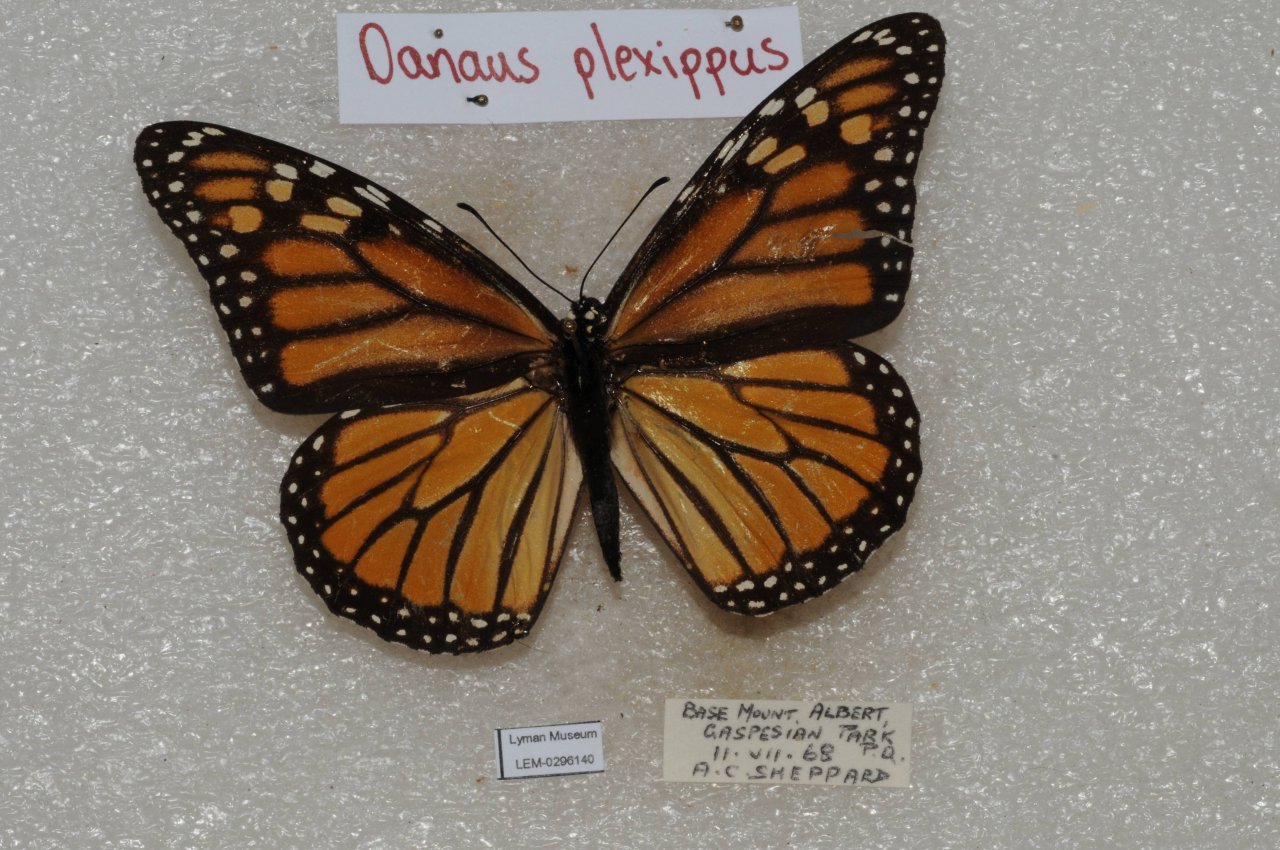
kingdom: Animalia
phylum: Arthropoda
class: Insecta
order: Lepidoptera
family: Nymphalidae
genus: Danaus
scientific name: Danaus plexippus
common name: Monarch
